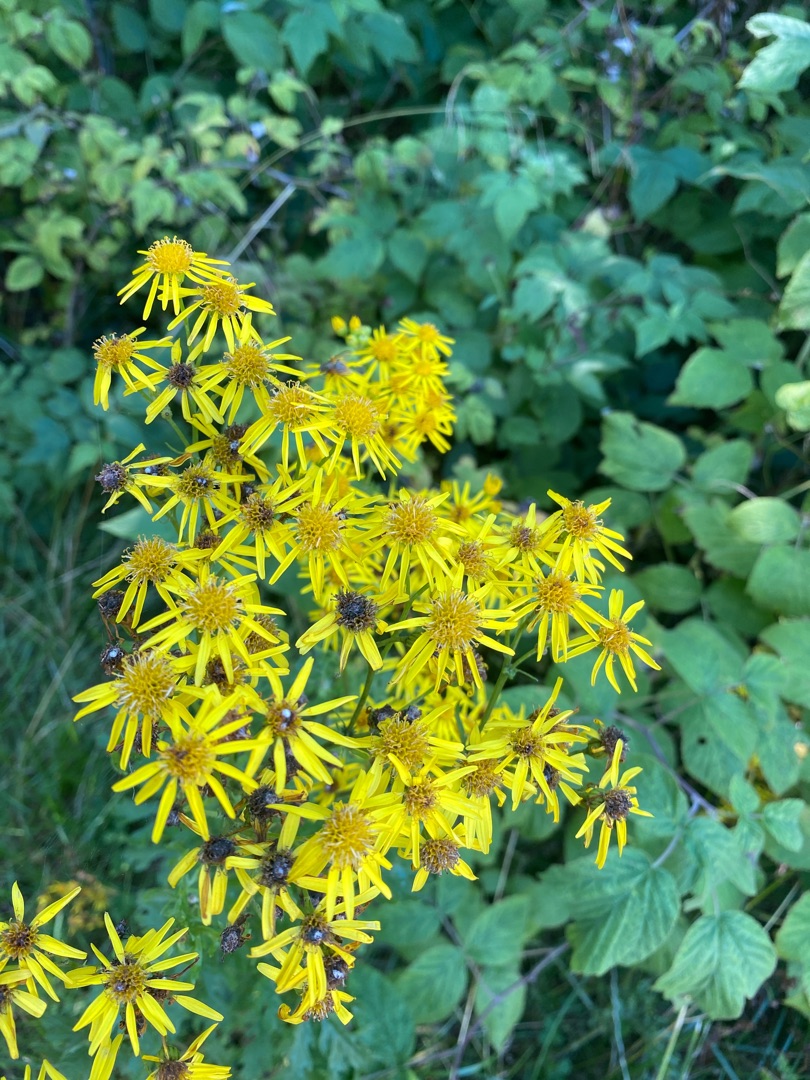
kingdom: Plantae
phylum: Tracheophyta
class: Magnoliopsida
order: Asterales
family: Asteraceae
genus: Jacobaea
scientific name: Jacobaea vulgaris
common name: Eng-brandbæger
